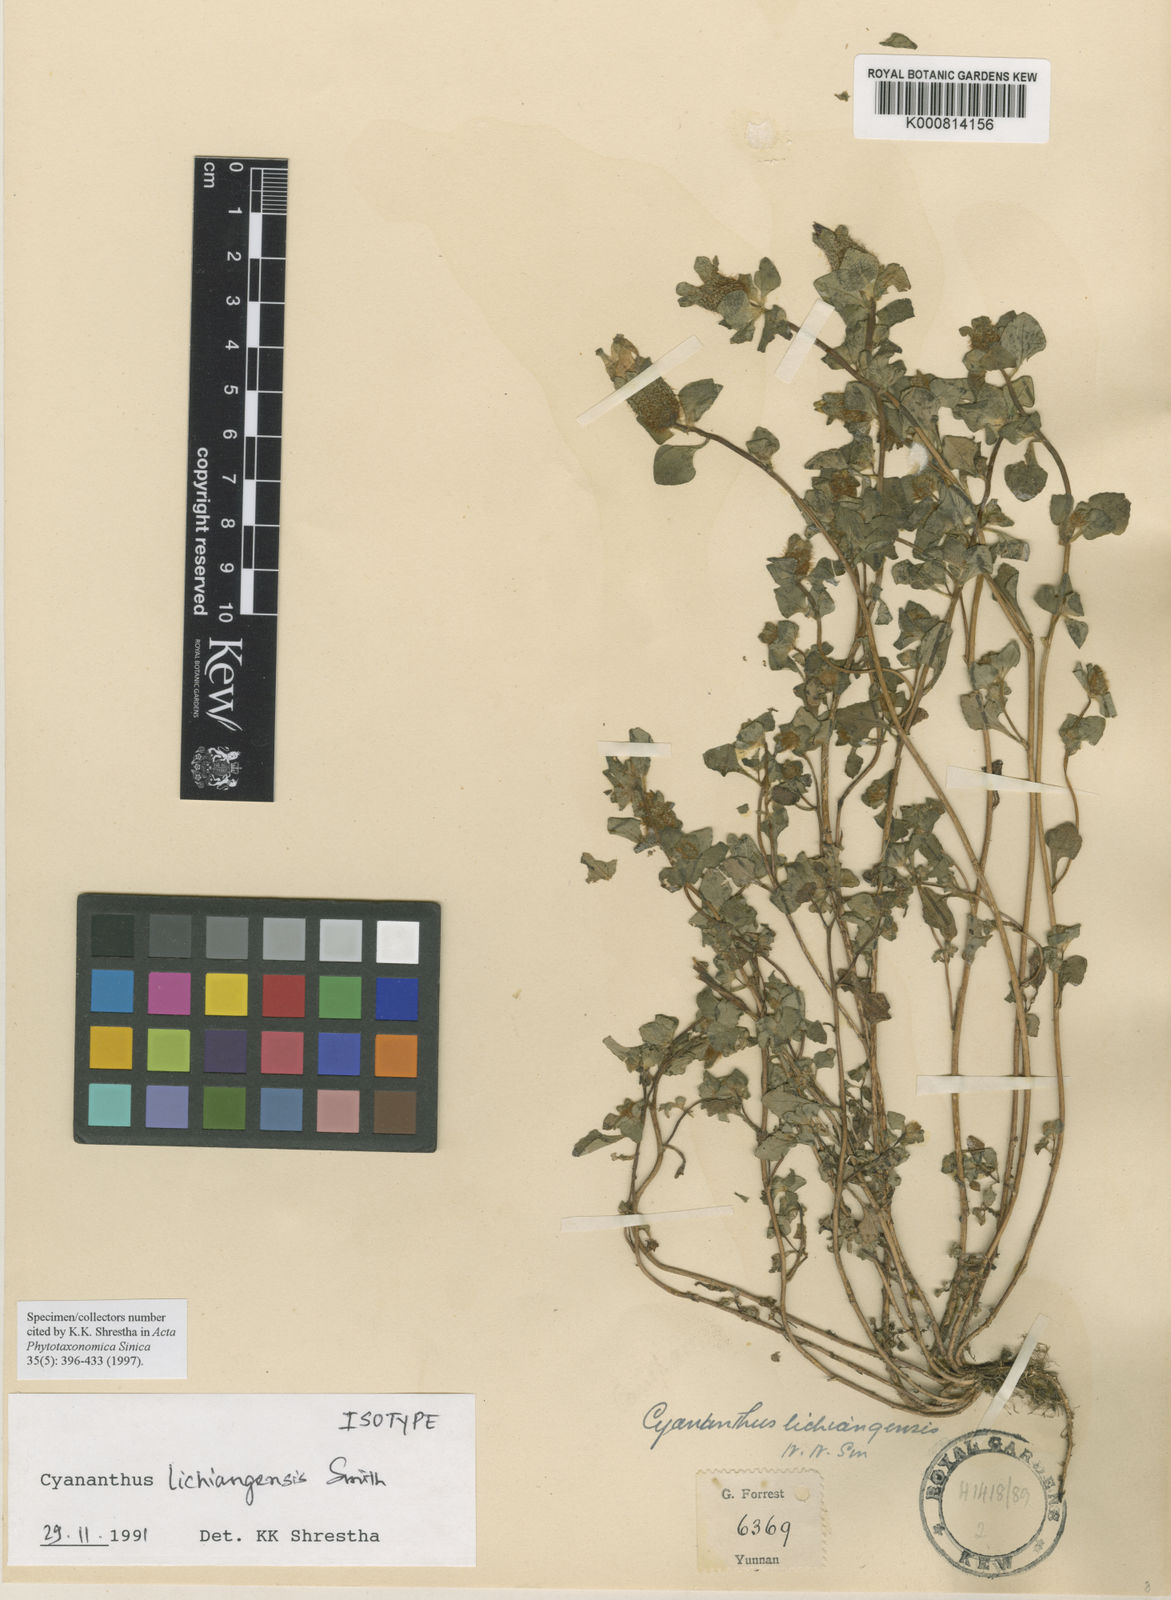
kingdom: Plantae
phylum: Tracheophyta
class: Magnoliopsida
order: Asterales
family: Campanulaceae
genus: Cyananthus
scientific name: Cyananthus lichiangensis
